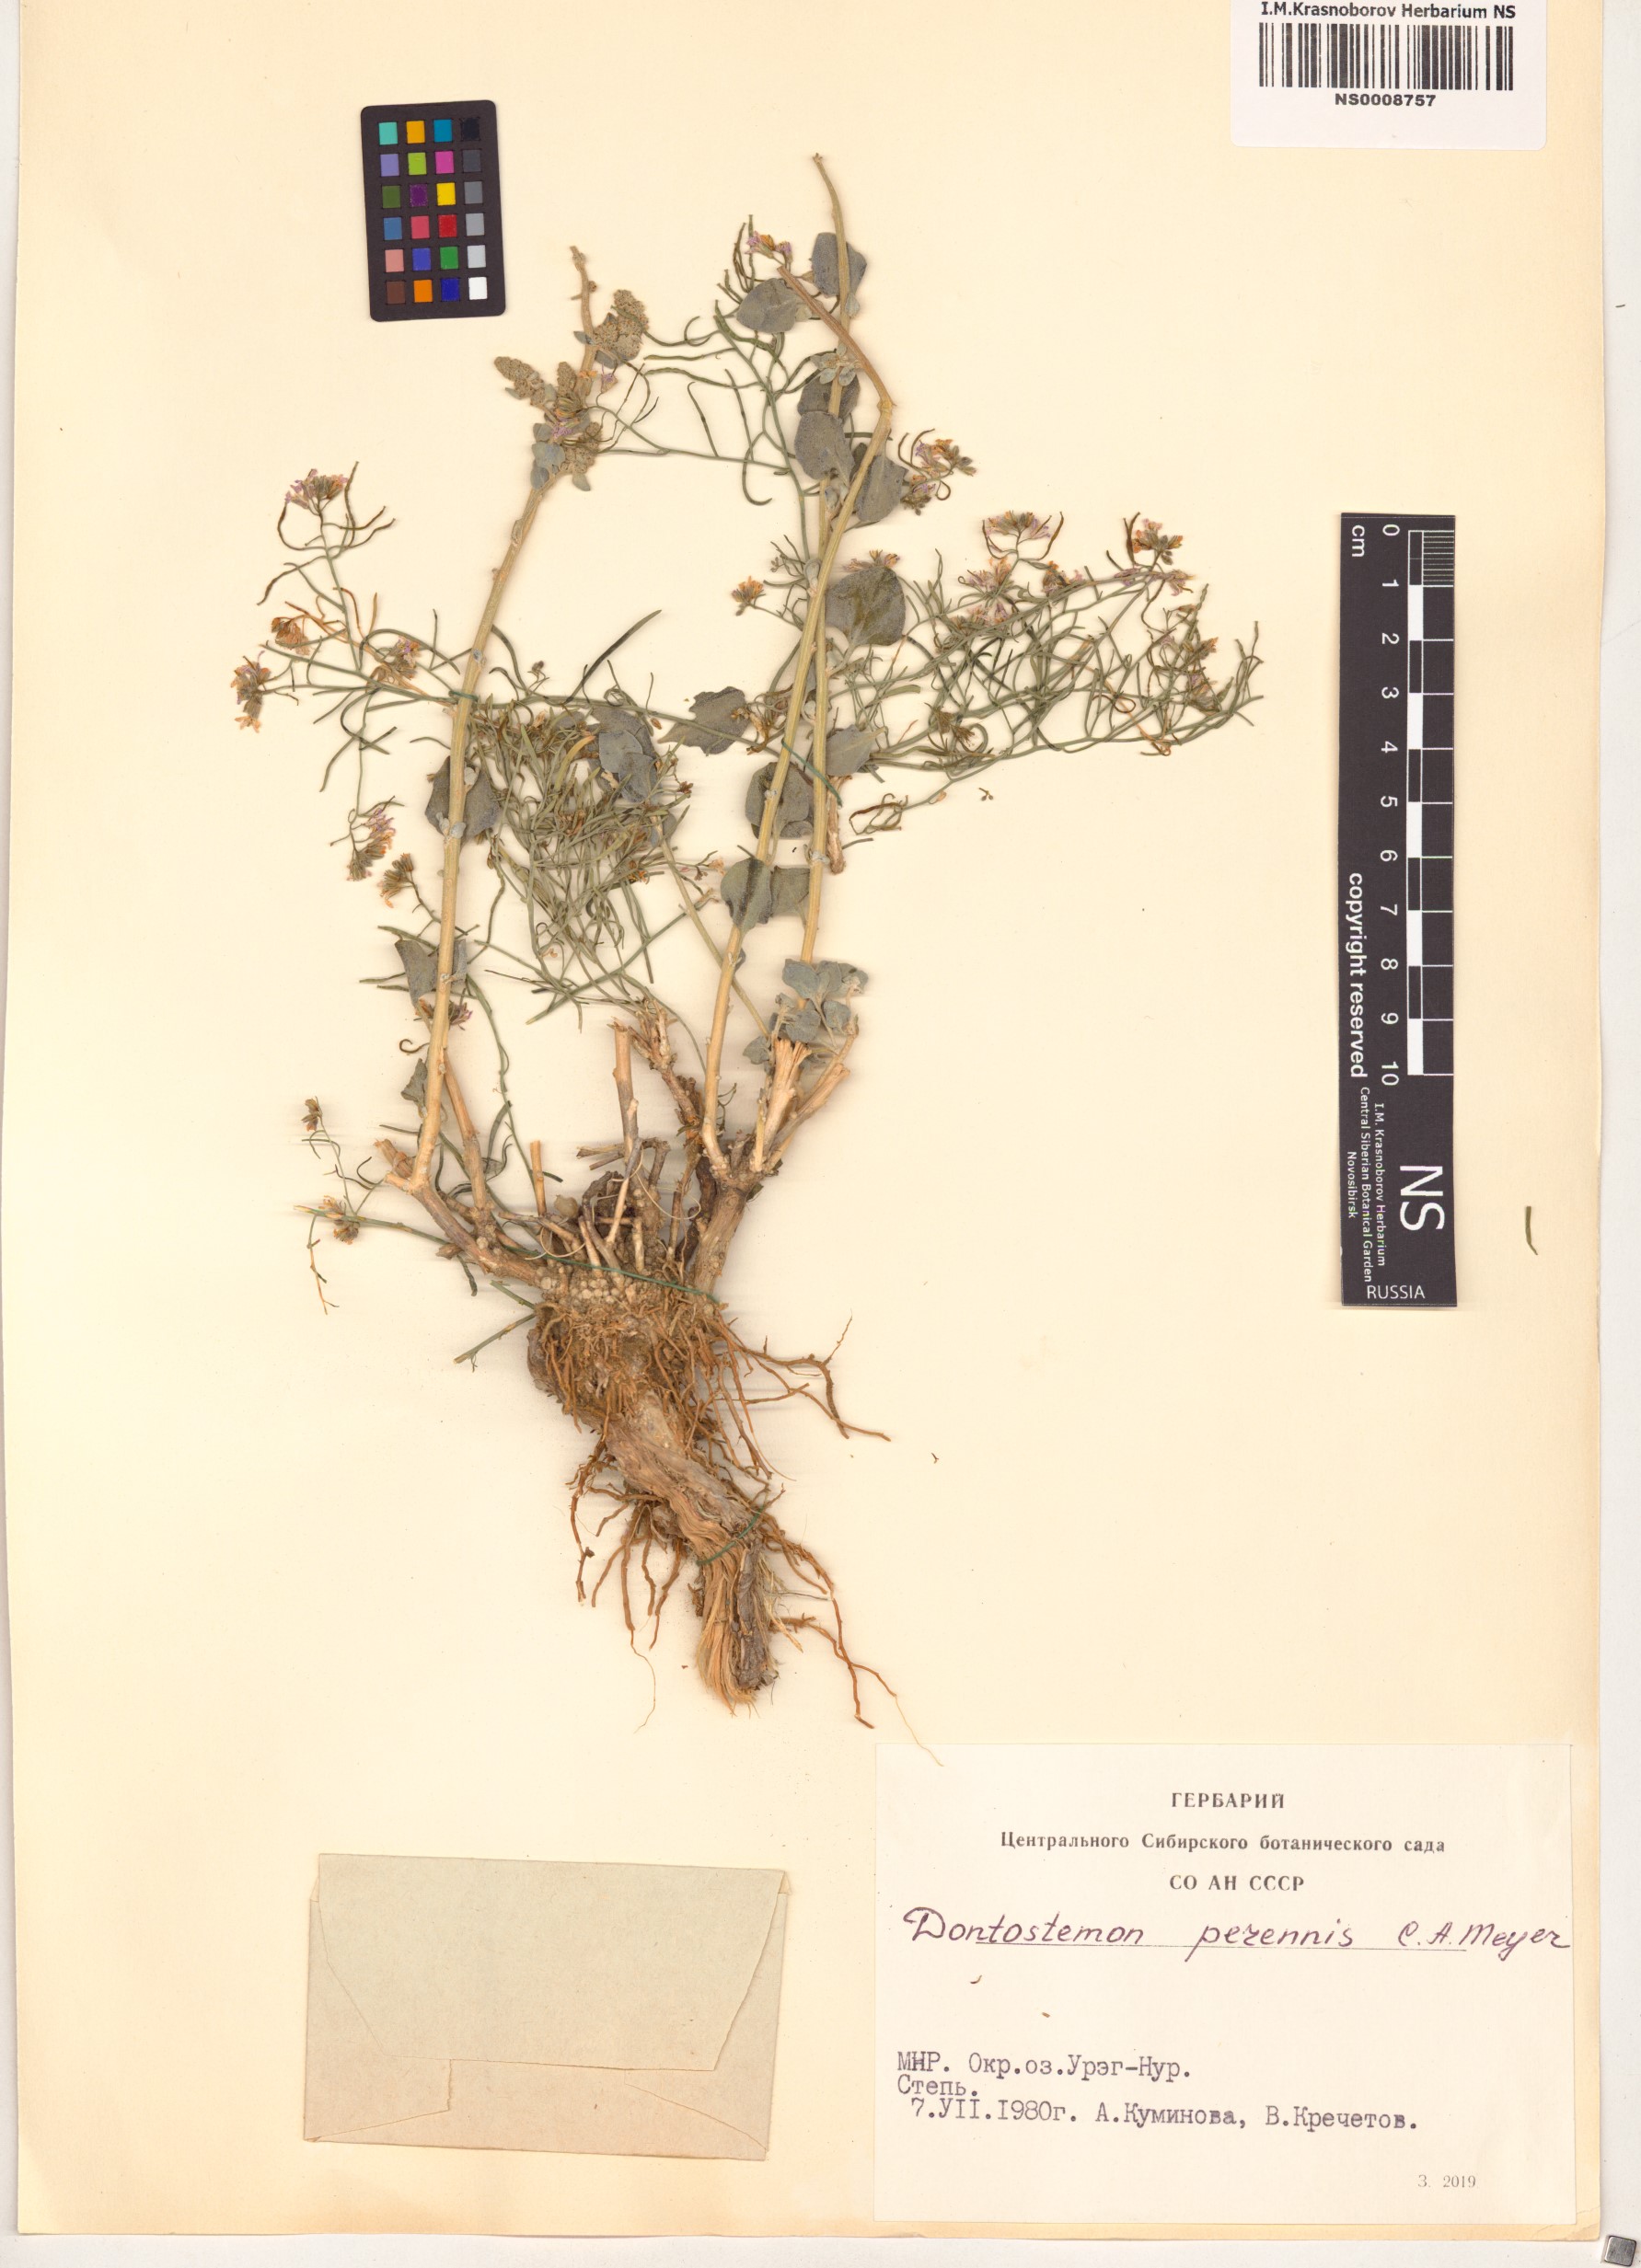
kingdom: Plantae
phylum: Tracheophyta
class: Magnoliopsida
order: Brassicales
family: Brassicaceae
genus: Dontostemon
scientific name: Dontostemon perennis
